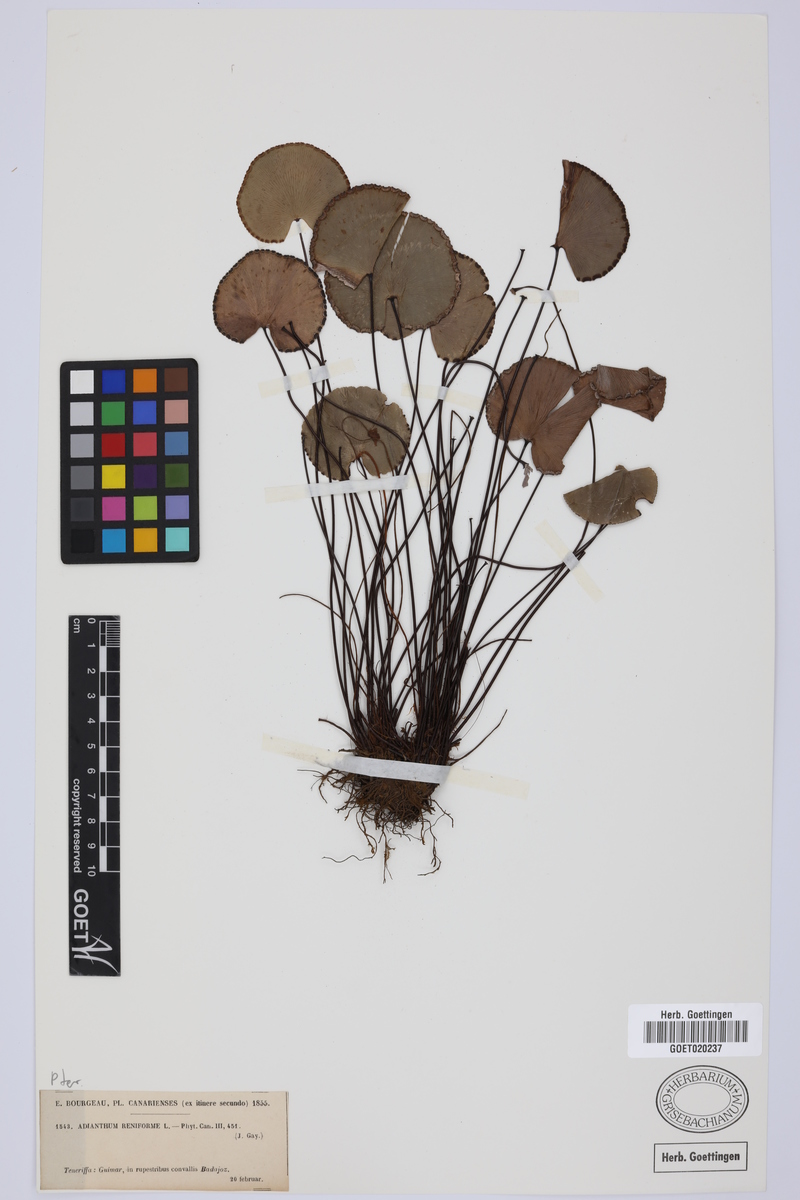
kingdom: Plantae
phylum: Tracheophyta
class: Polypodiopsida
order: Polypodiales
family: Pteridaceae
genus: Adiantum
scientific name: Adiantum reniforme
